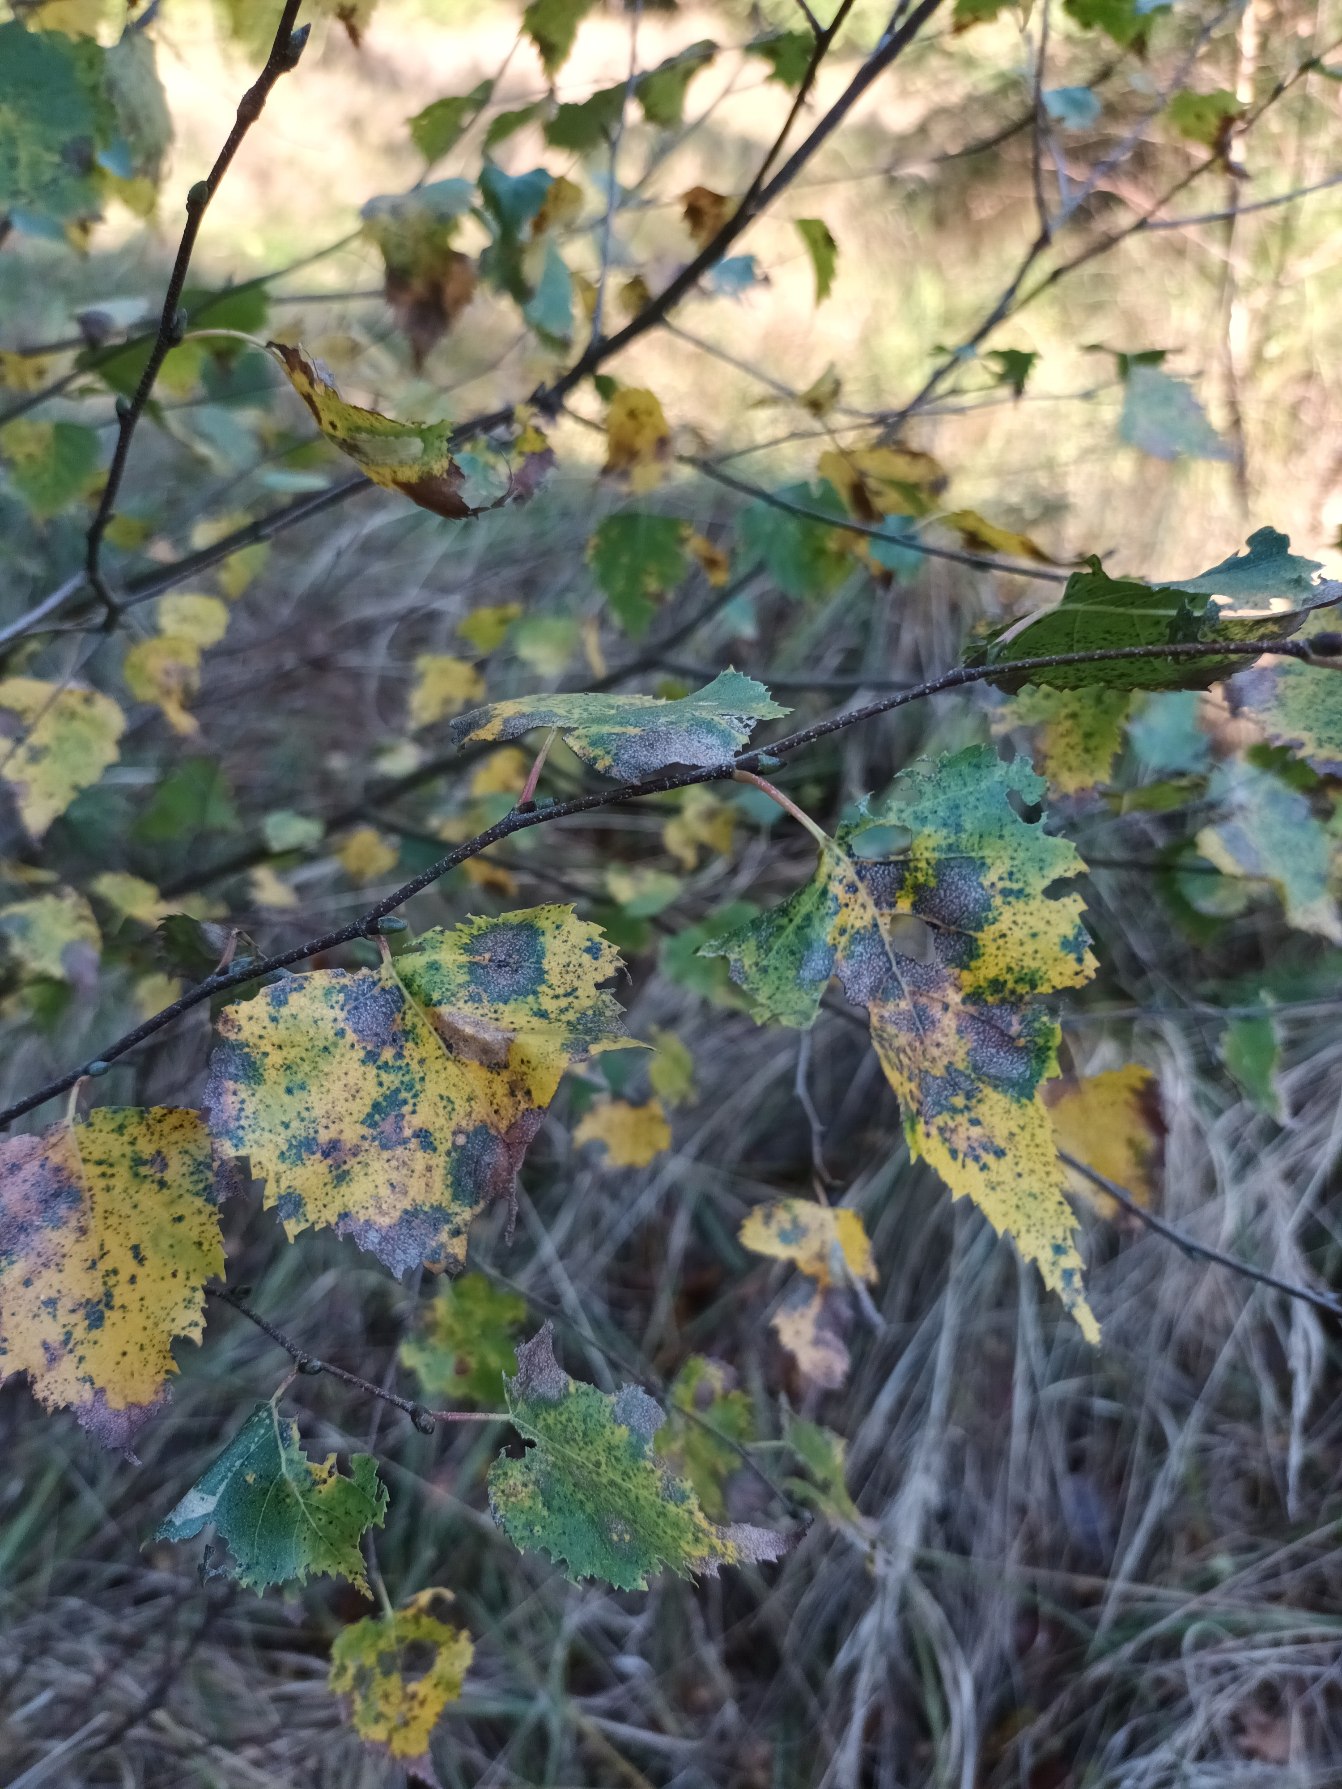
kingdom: Plantae
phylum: Tracheophyta
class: Magnoliopsida
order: Fagales
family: Betulaceae
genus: Betula
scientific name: Betula pendula
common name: Vorte-birk
